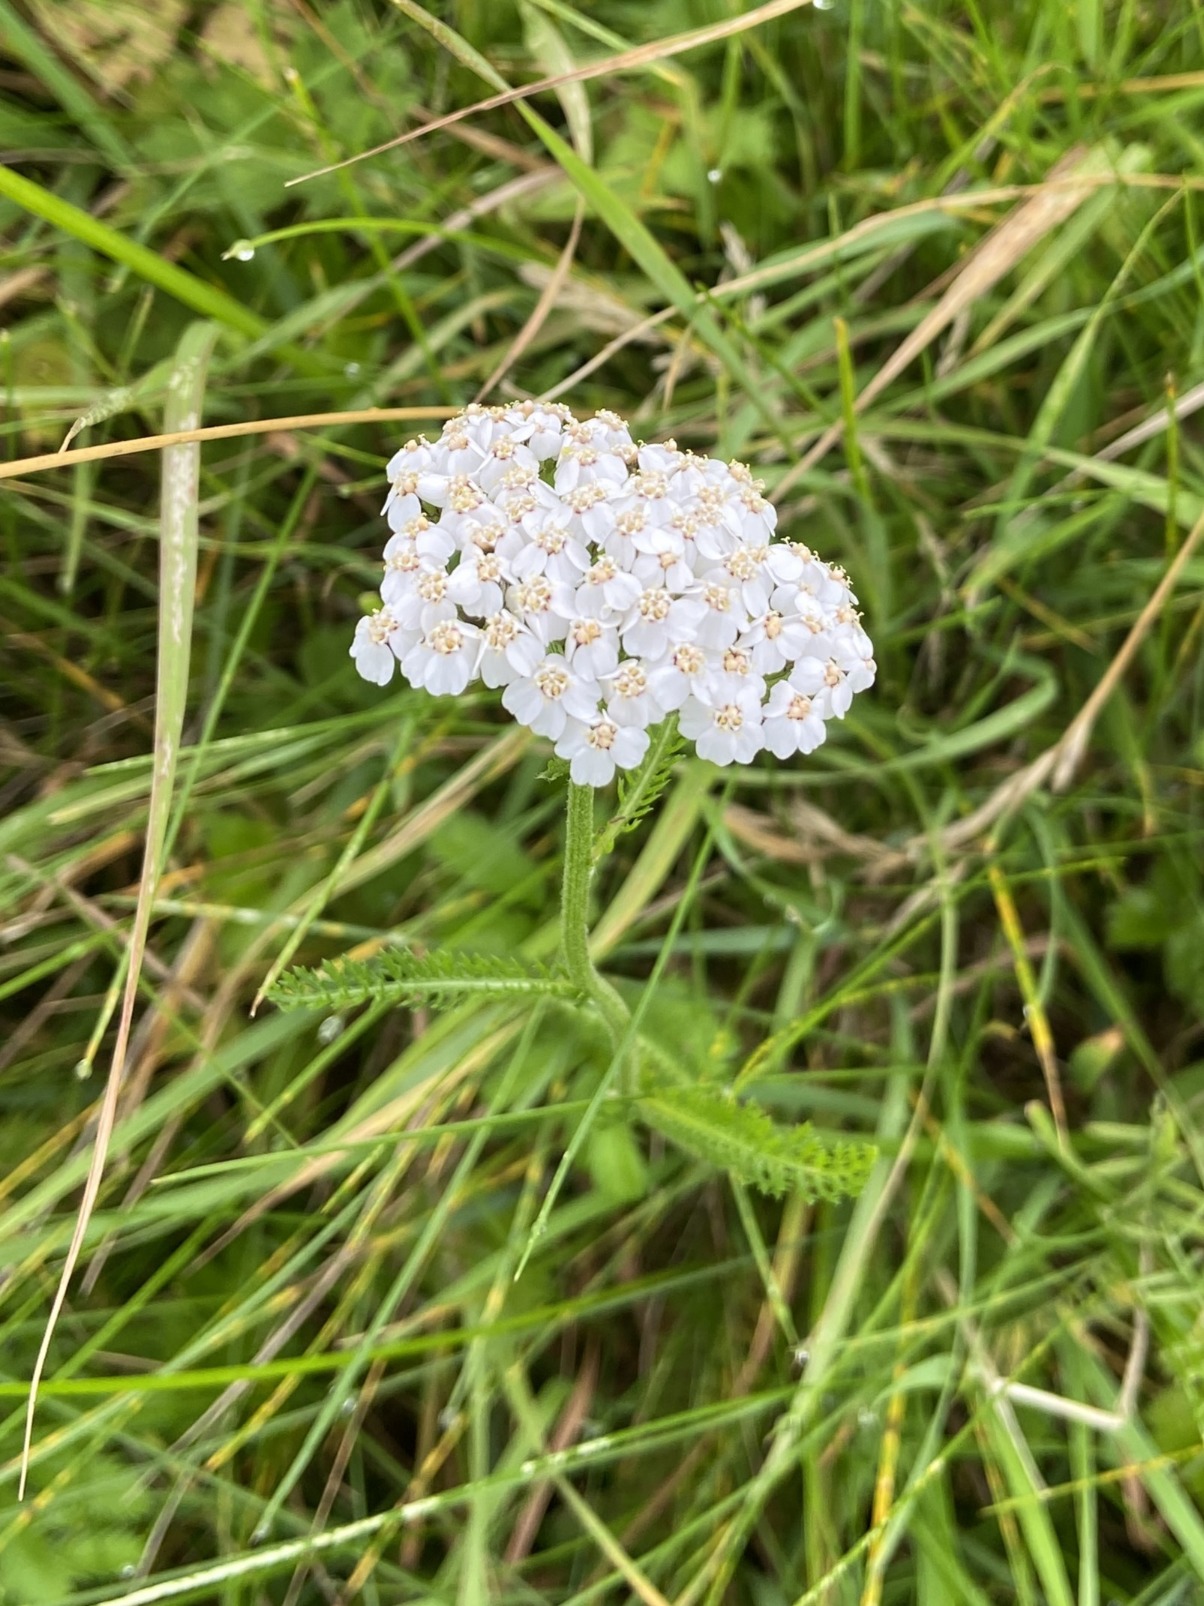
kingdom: Plantae
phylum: Tracheophyta
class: Magnoliopsida
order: Asterales
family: Asteraceae
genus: Achillea
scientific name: Achillea millefolium
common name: Almindelig røllike
